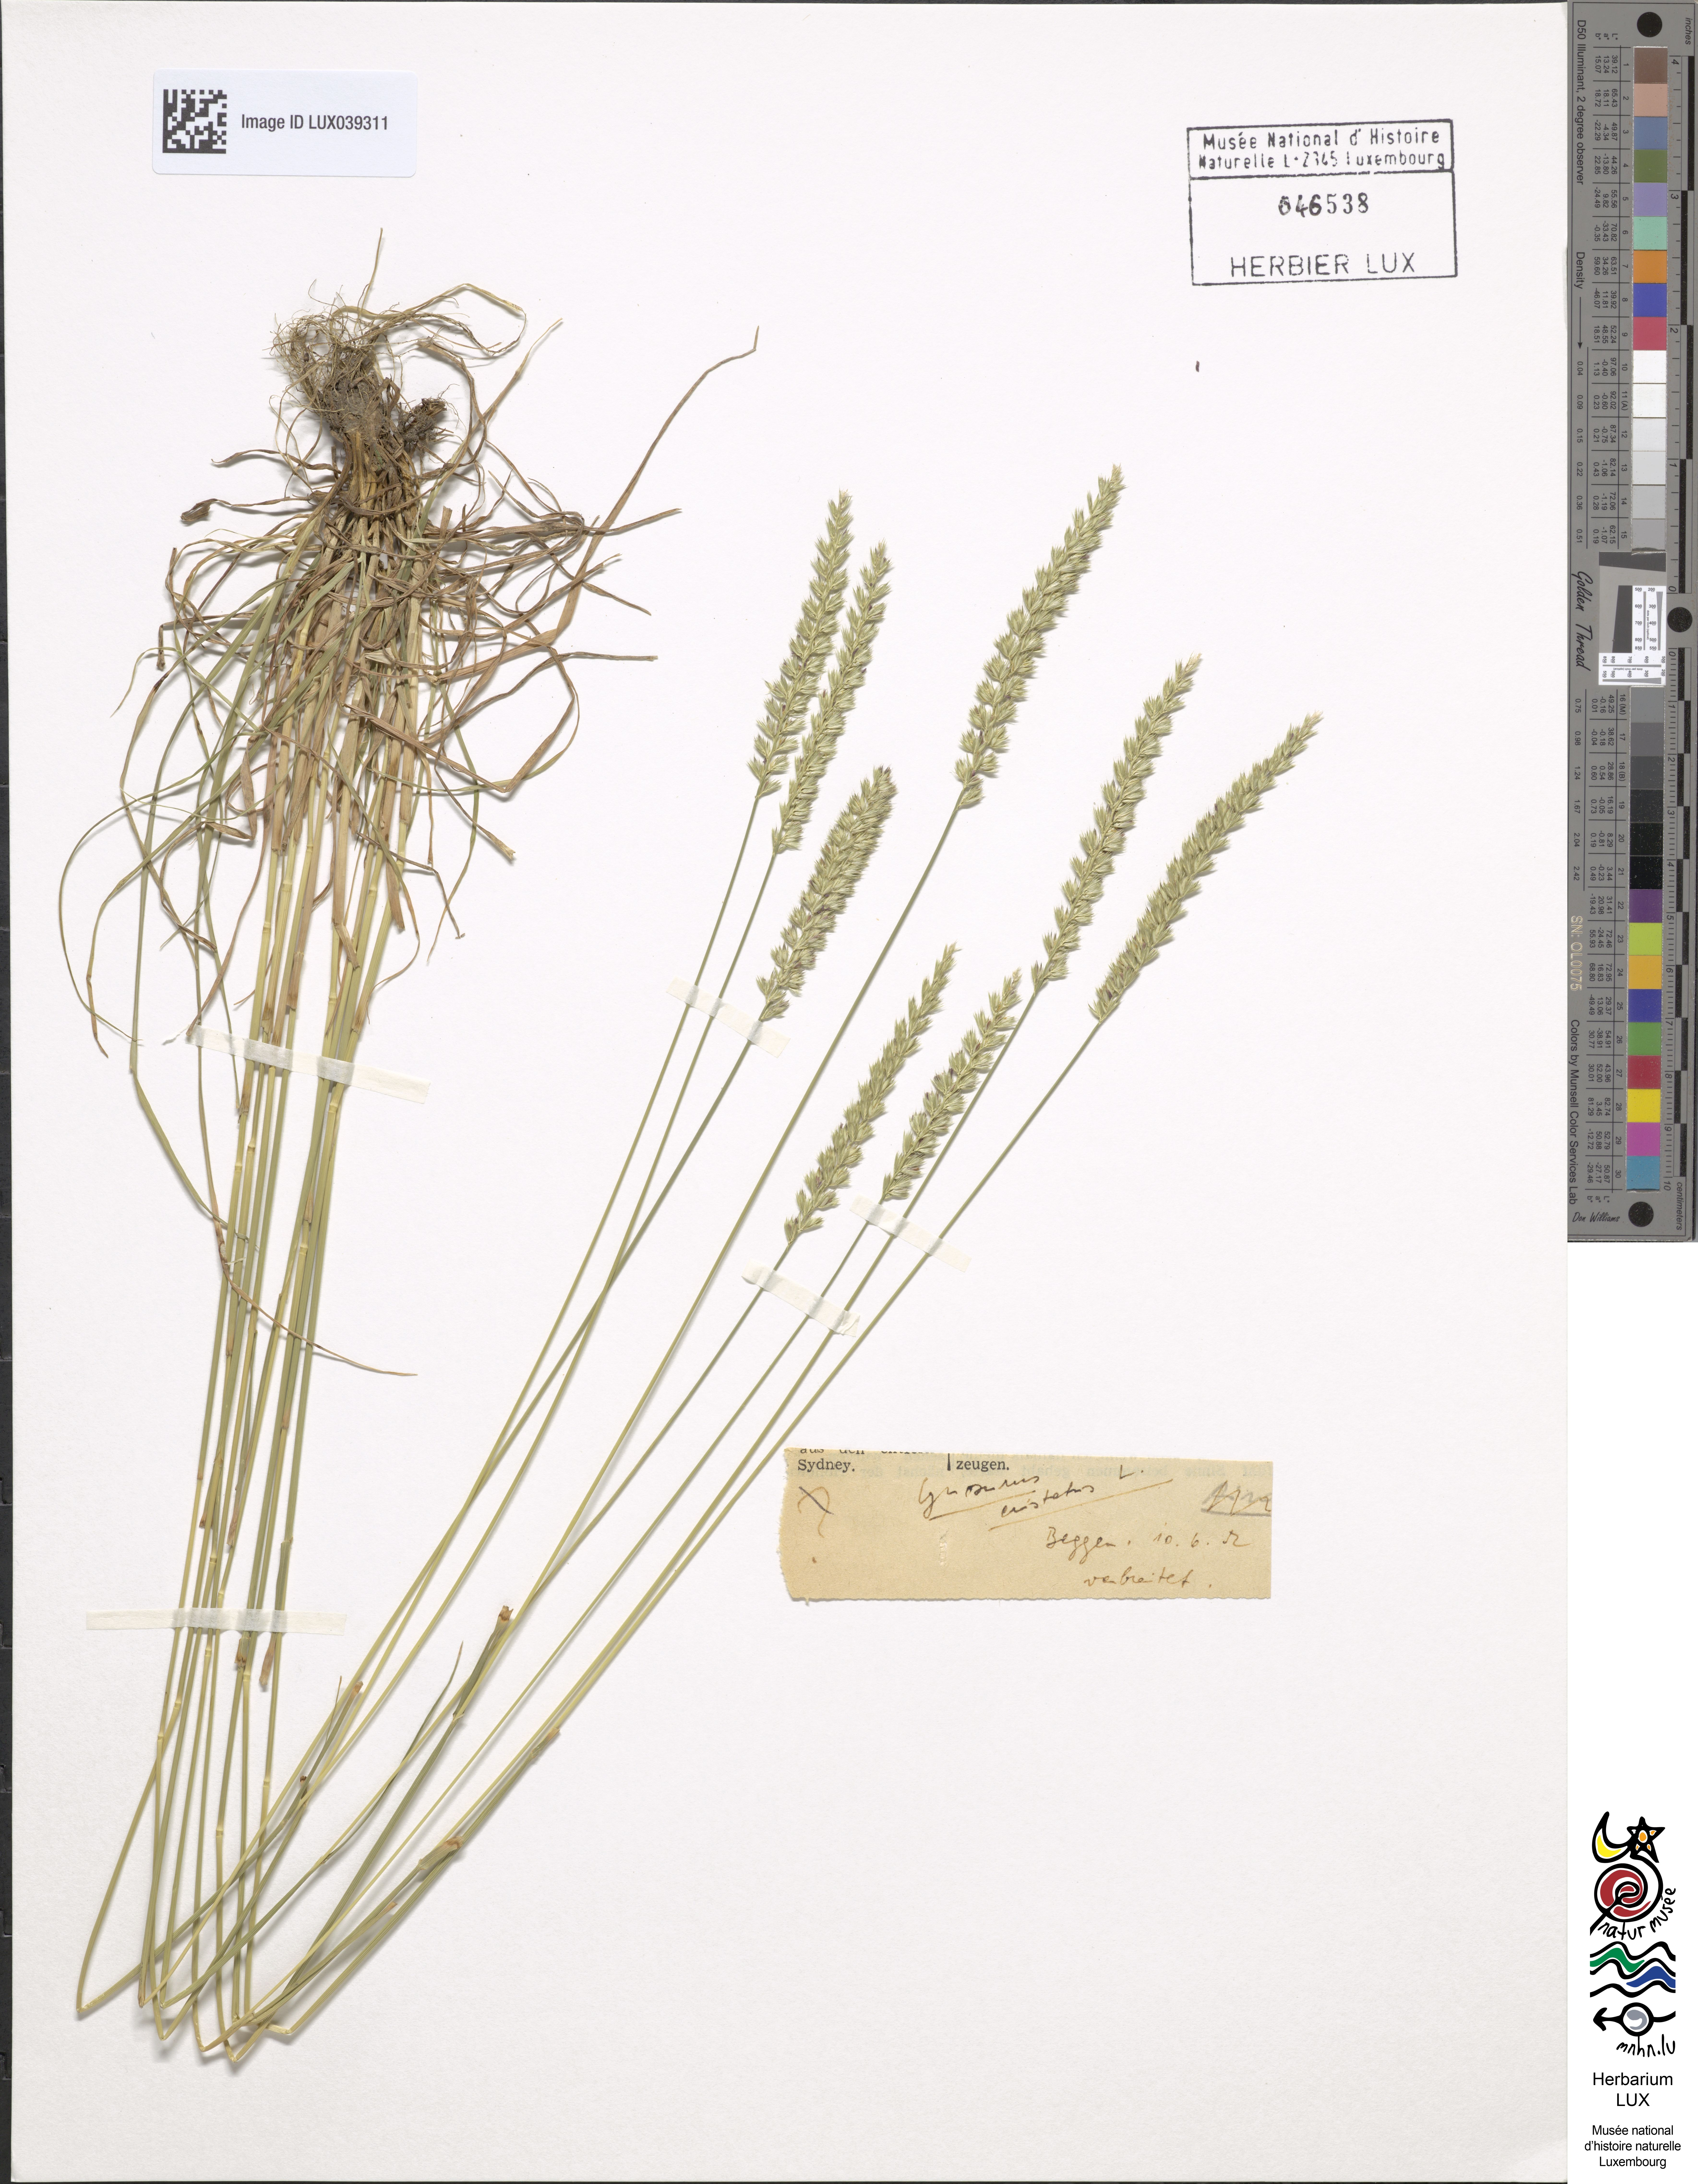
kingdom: Plantae
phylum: Tracheophyta
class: Liliopsida
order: Poales
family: Poaceae
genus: Cynosurus
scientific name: Cynosurus cristatus
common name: Crested dog's-tail
